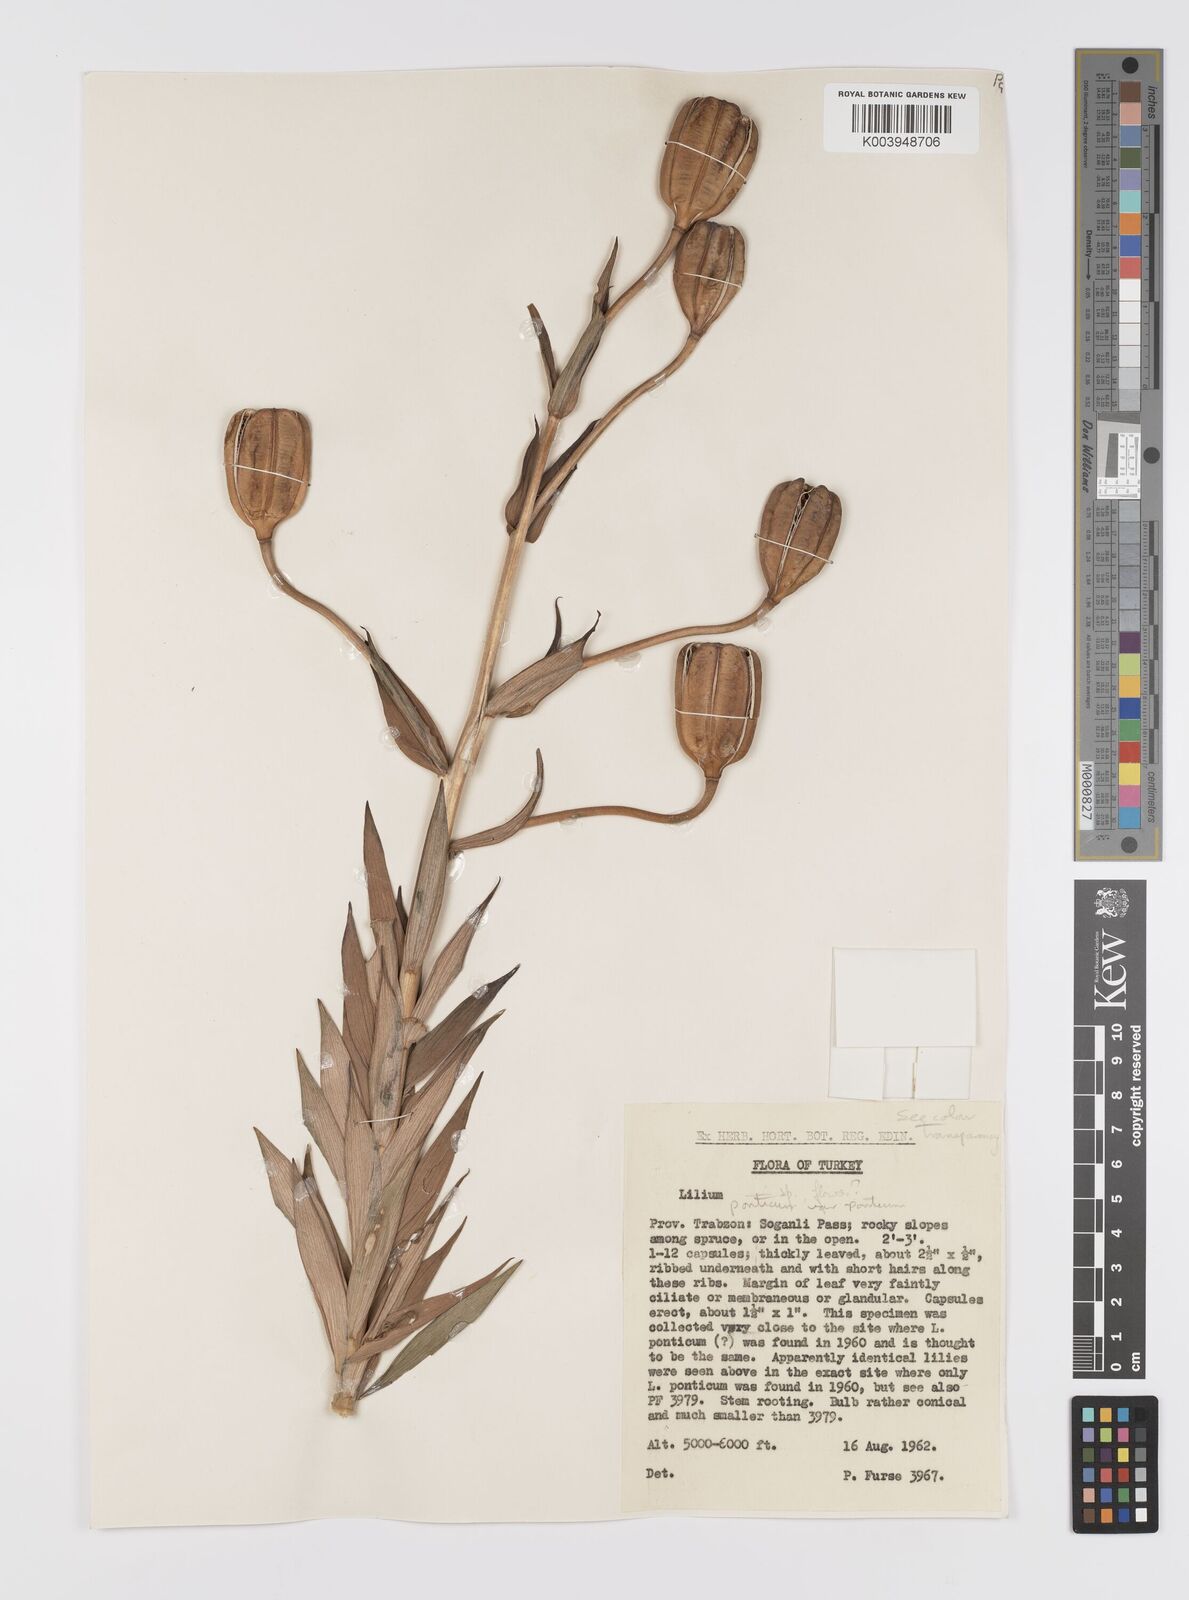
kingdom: Plantae
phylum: Tracheophyta
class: Liliopsida
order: Liliales
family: Liliaceae
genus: Lilium
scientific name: Lilium ponticum
